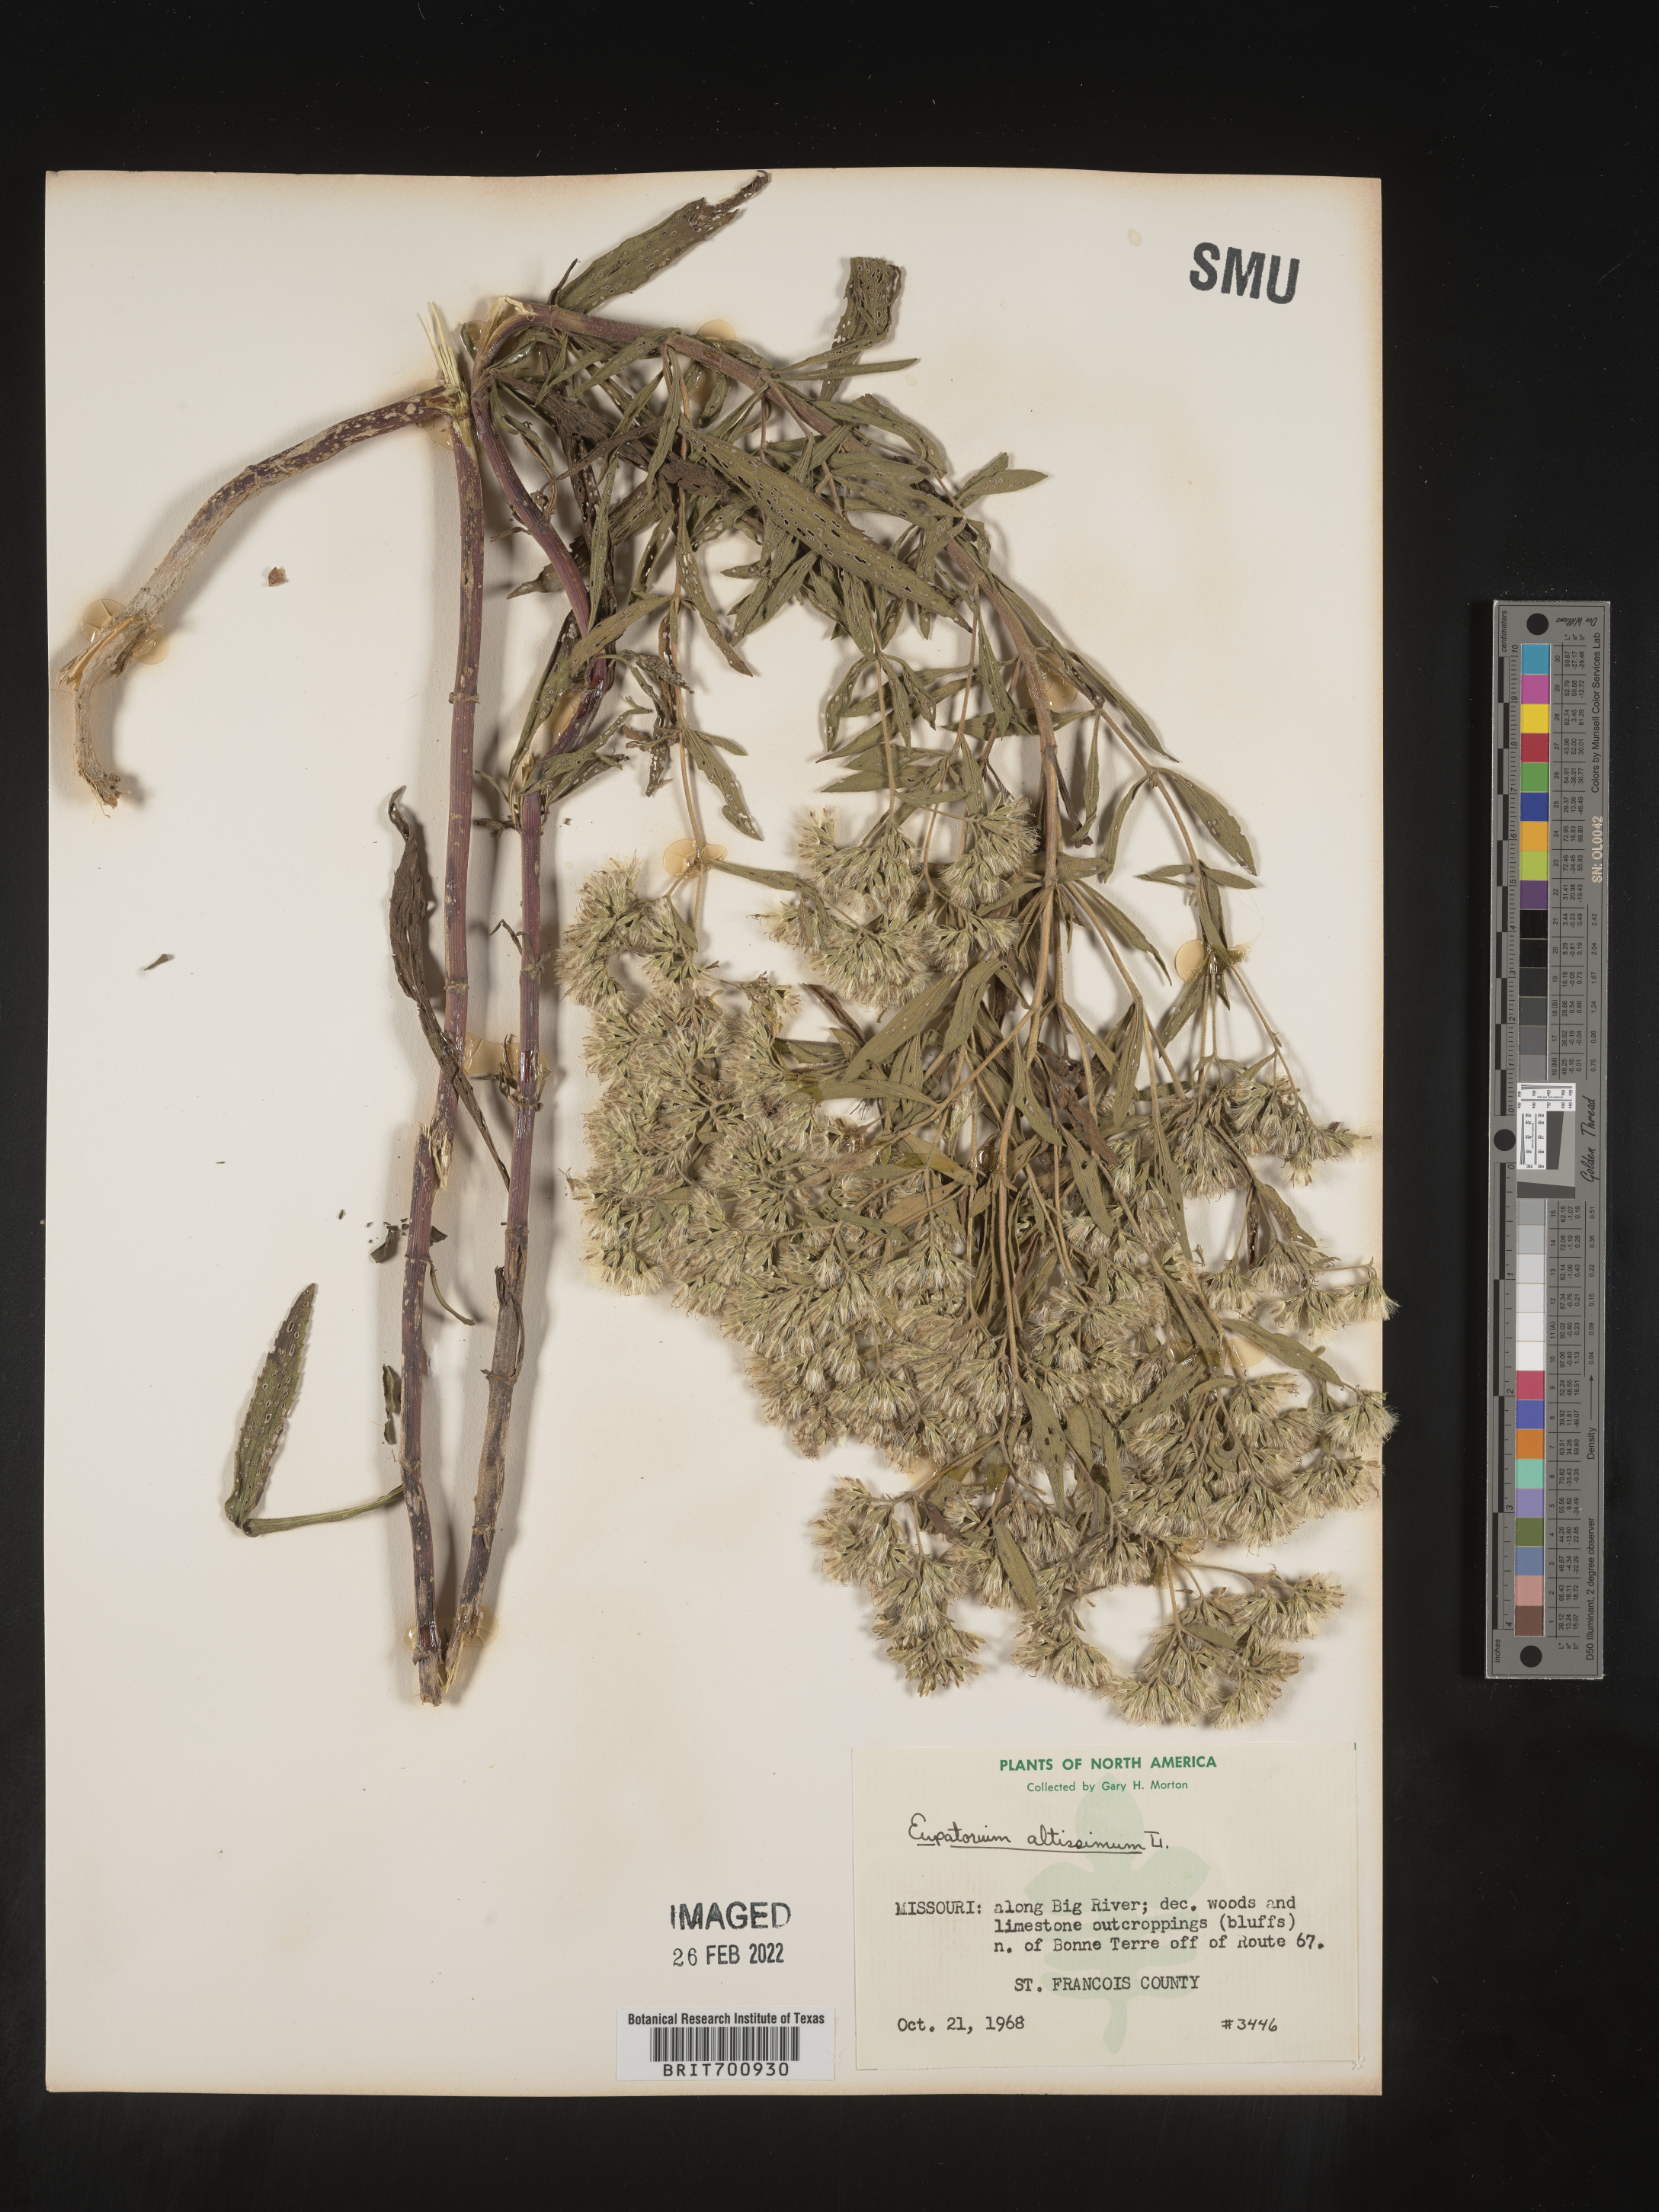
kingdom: Plantae
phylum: Tracheophyta
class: Magnoliopsida
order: Asterales
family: Asteraceae
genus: Eupatorium
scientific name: Eupatorium altissimum
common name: Tall thoroughwort
